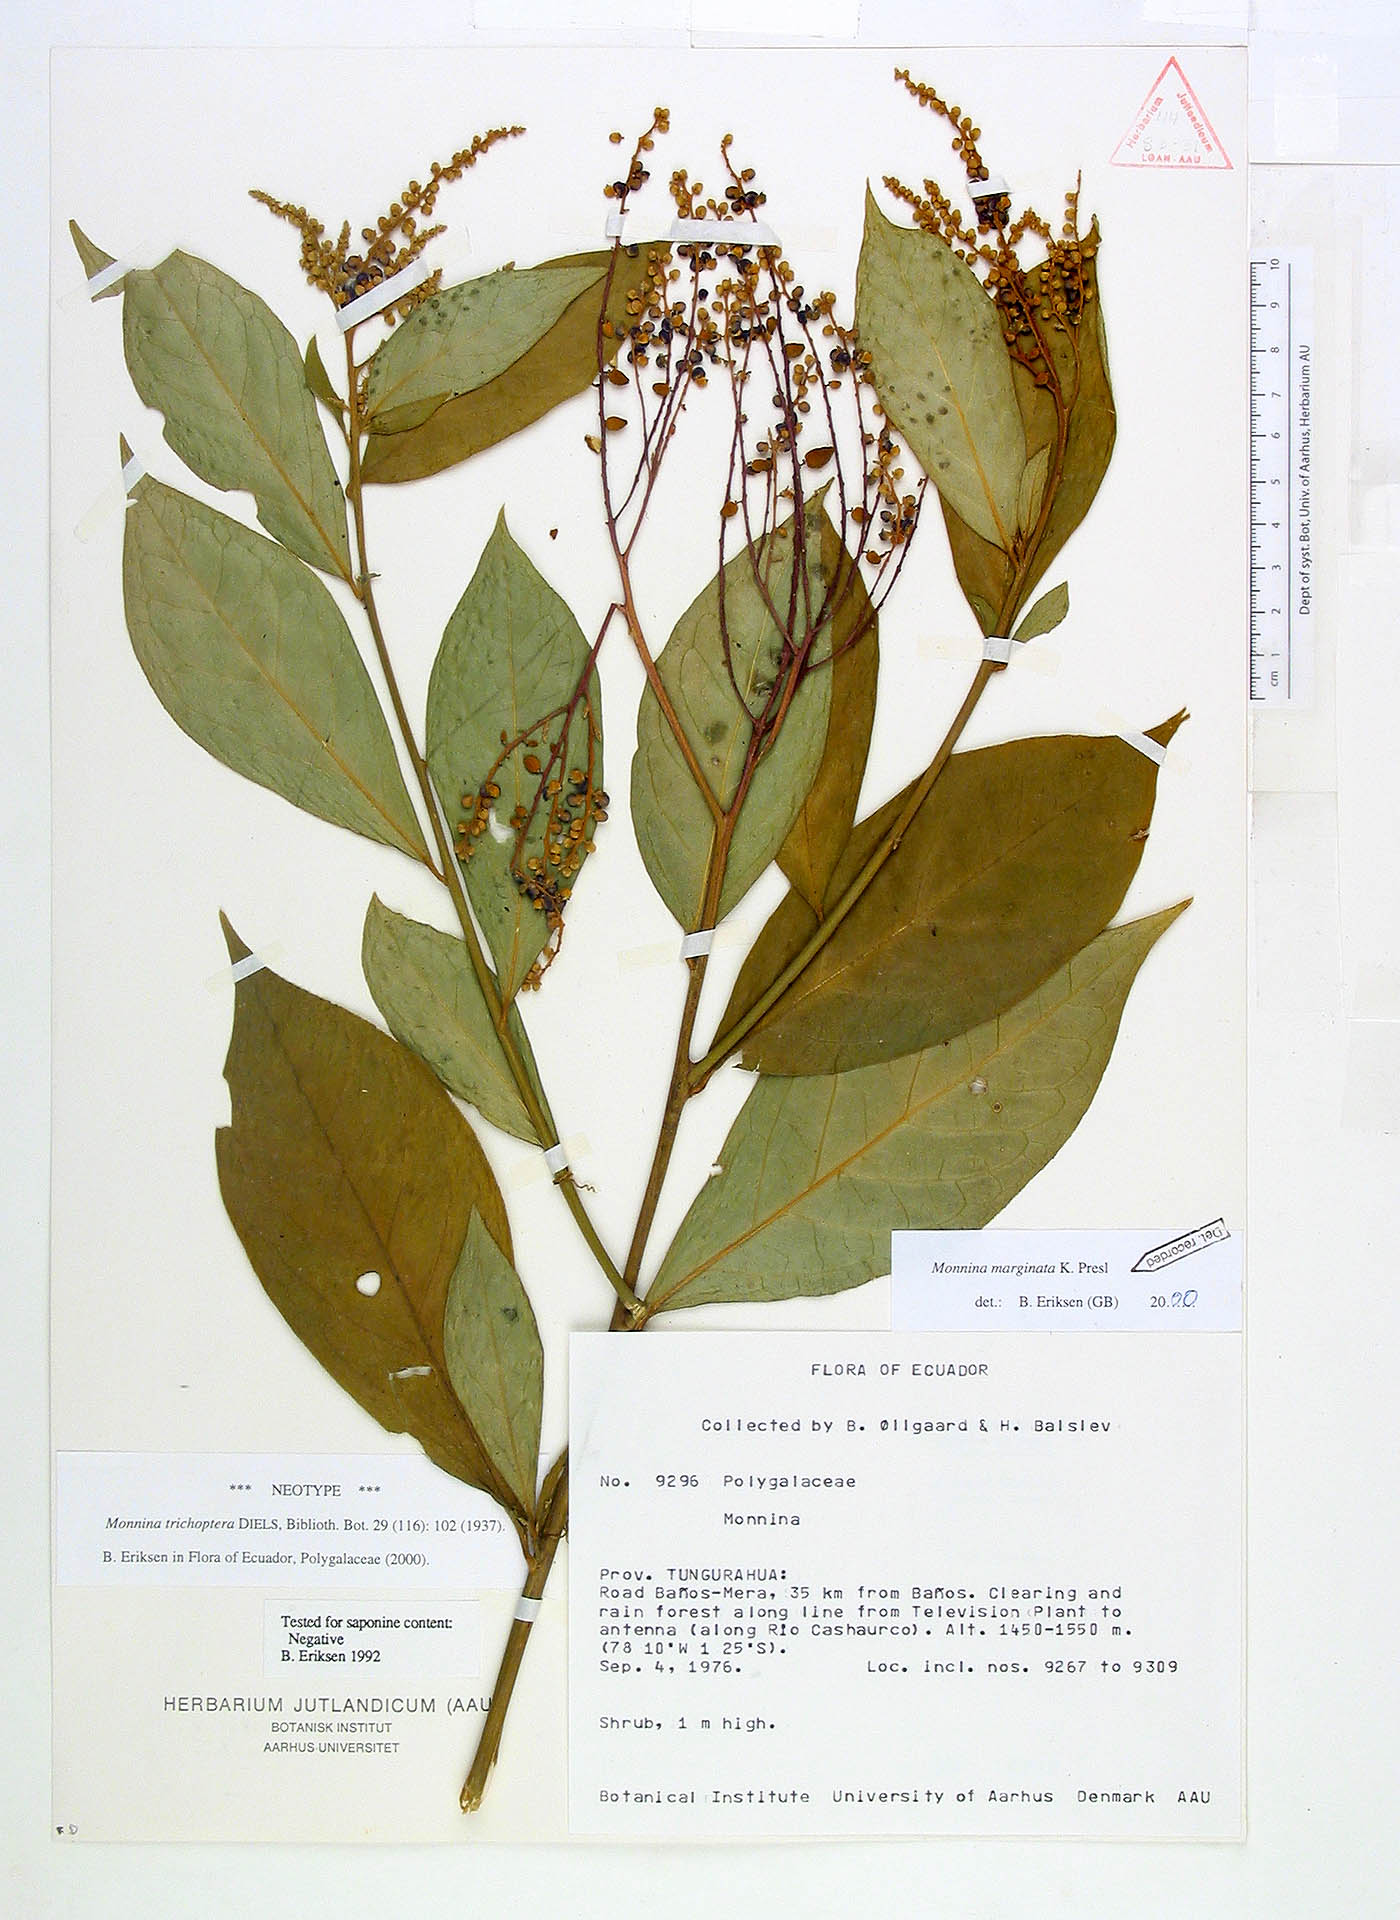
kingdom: Plantae
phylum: Tracheophyta
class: Magnoliopsida
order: Fabales
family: Polygalaceae
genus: Monnina
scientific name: Monnina marginata
